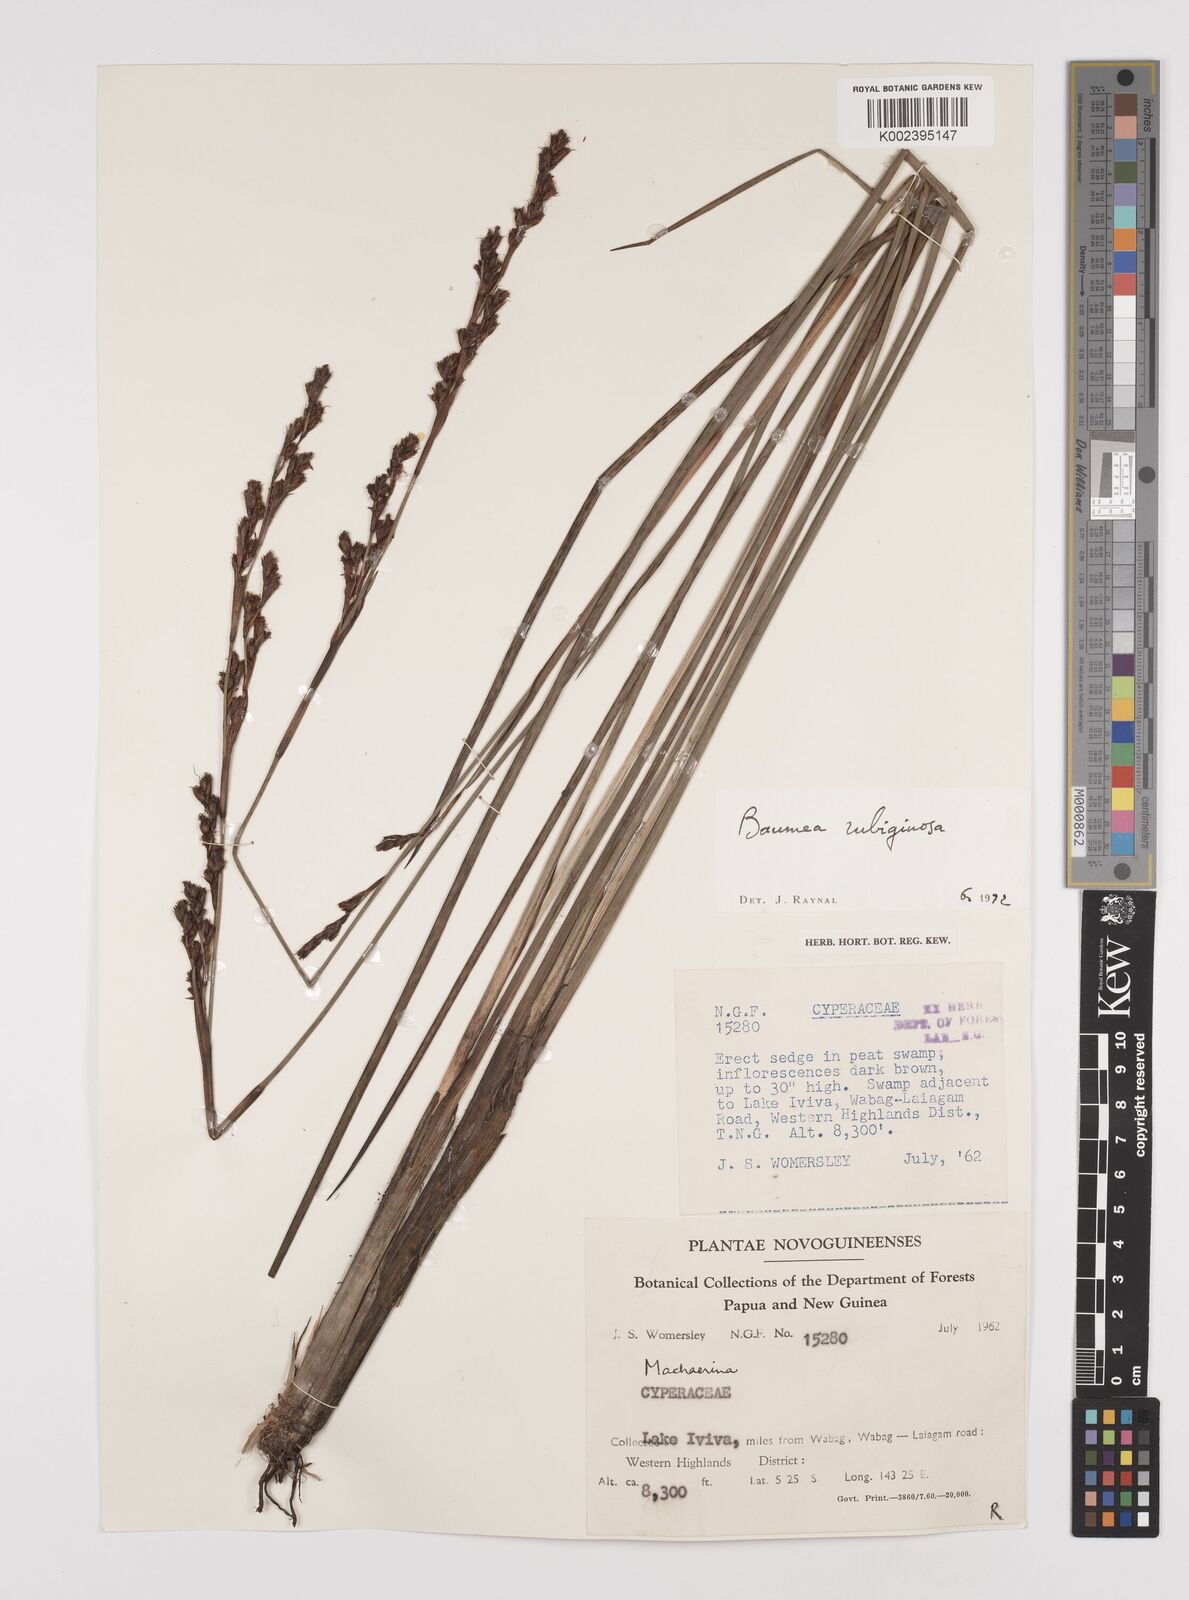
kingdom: Plantae
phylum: Tracheophyta
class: Liliopsida
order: Poales
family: Cyperaceae
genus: Machaerina
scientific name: Machaerina rubiginosa
